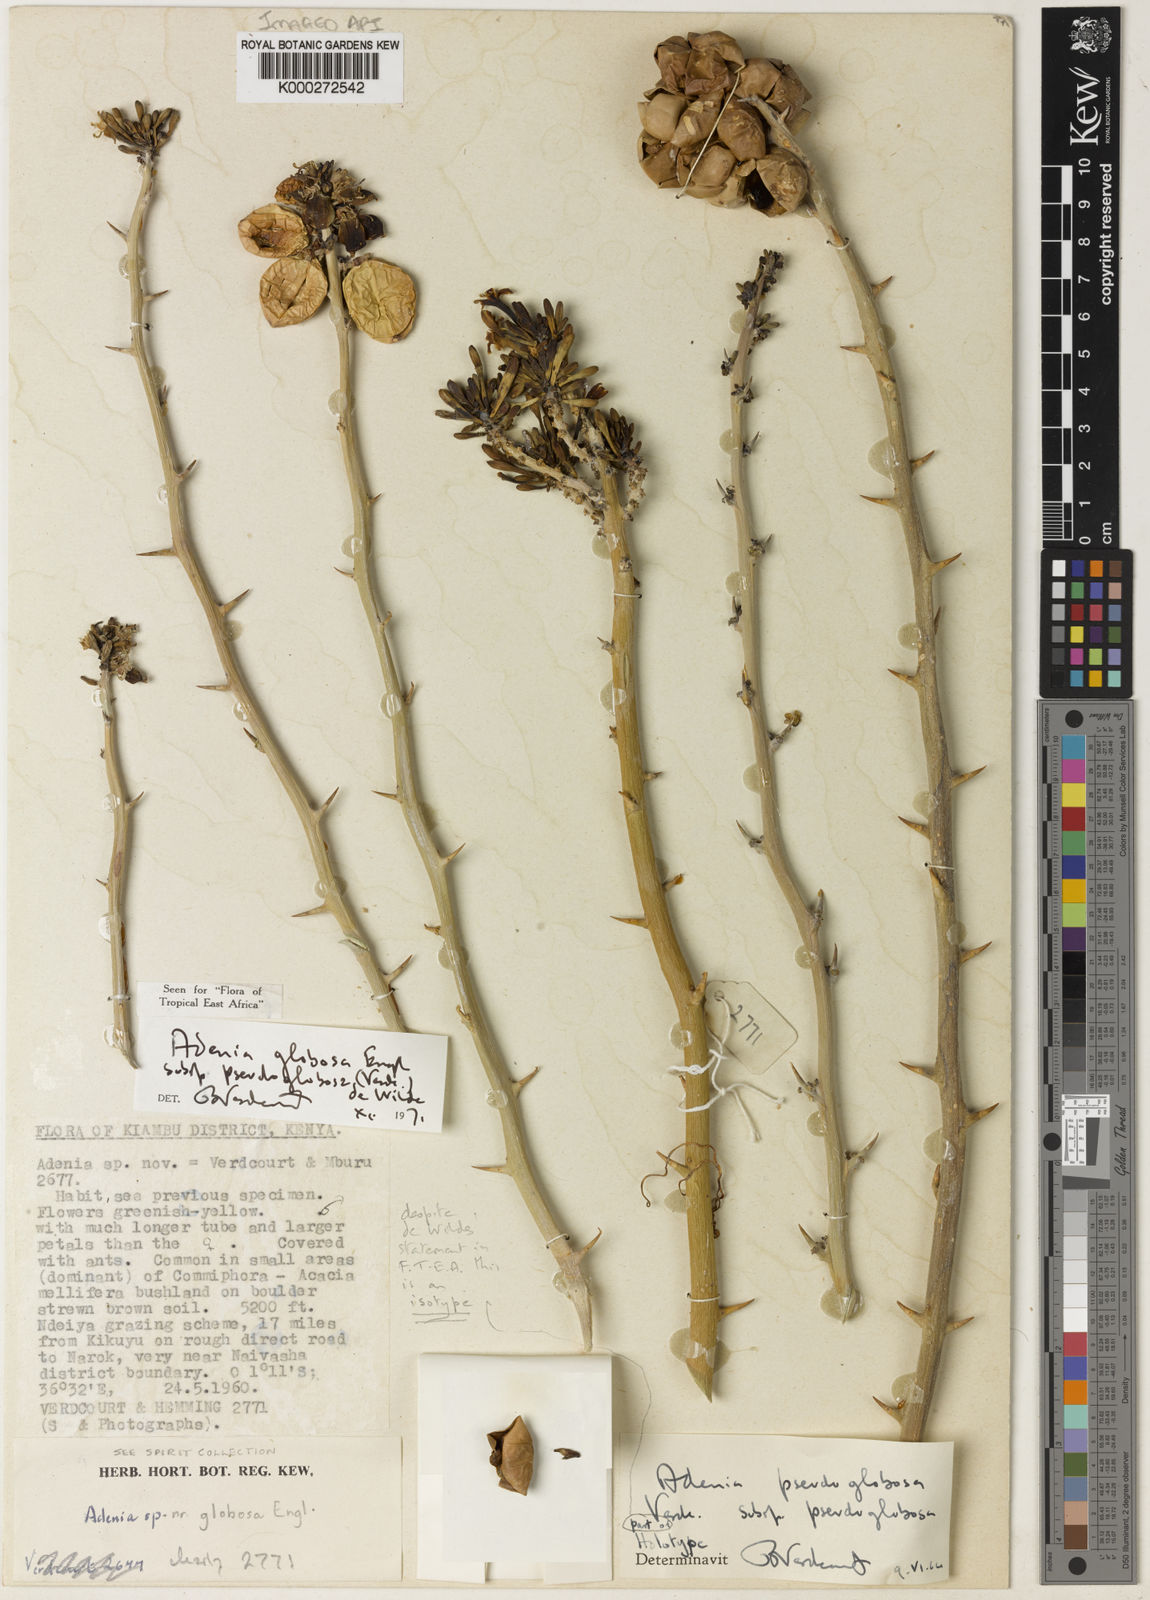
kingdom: Plantae
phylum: Tracheophyta
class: Magnoliopsida
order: Malpighiales
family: Passifloraceae
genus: Adenia
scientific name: Adenia globosa
